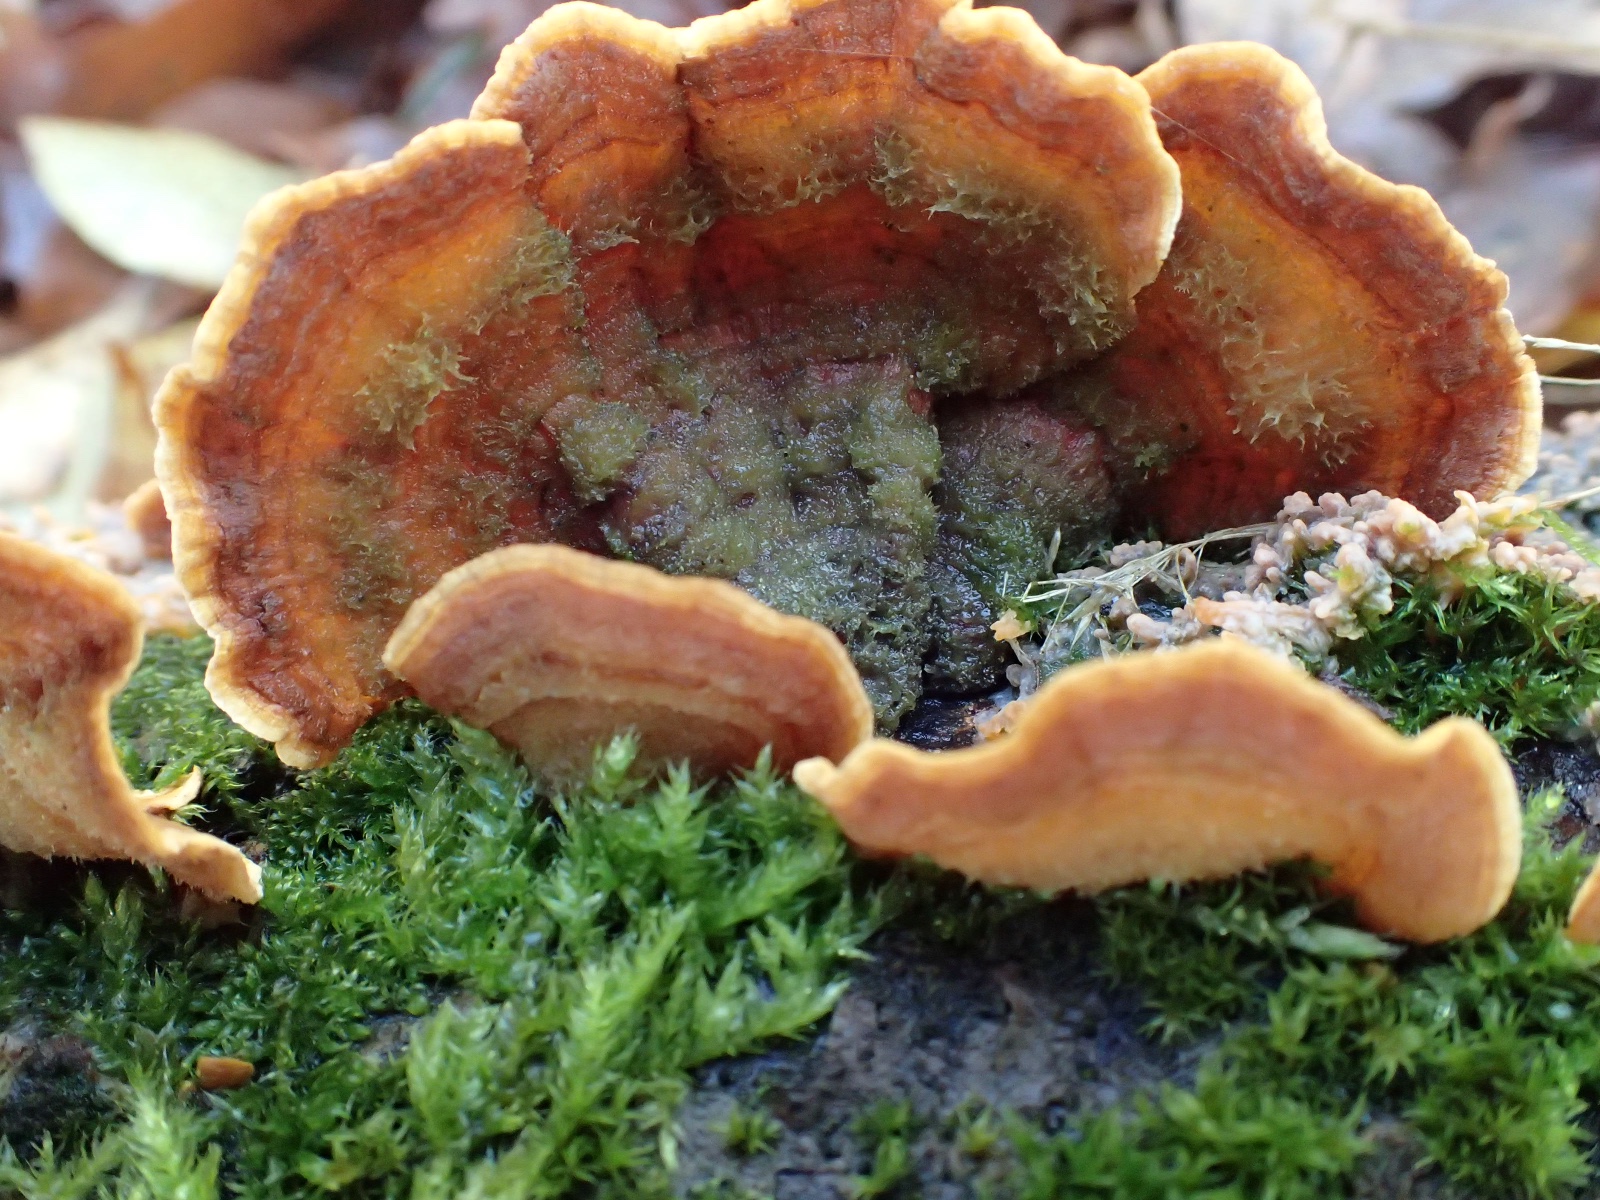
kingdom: Fungi
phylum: Basidiomycota
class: Agaricomycetes
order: Russulales
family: Stereaceae
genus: Stereum
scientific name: Stereum hirsutum
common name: håret lædersvamp
